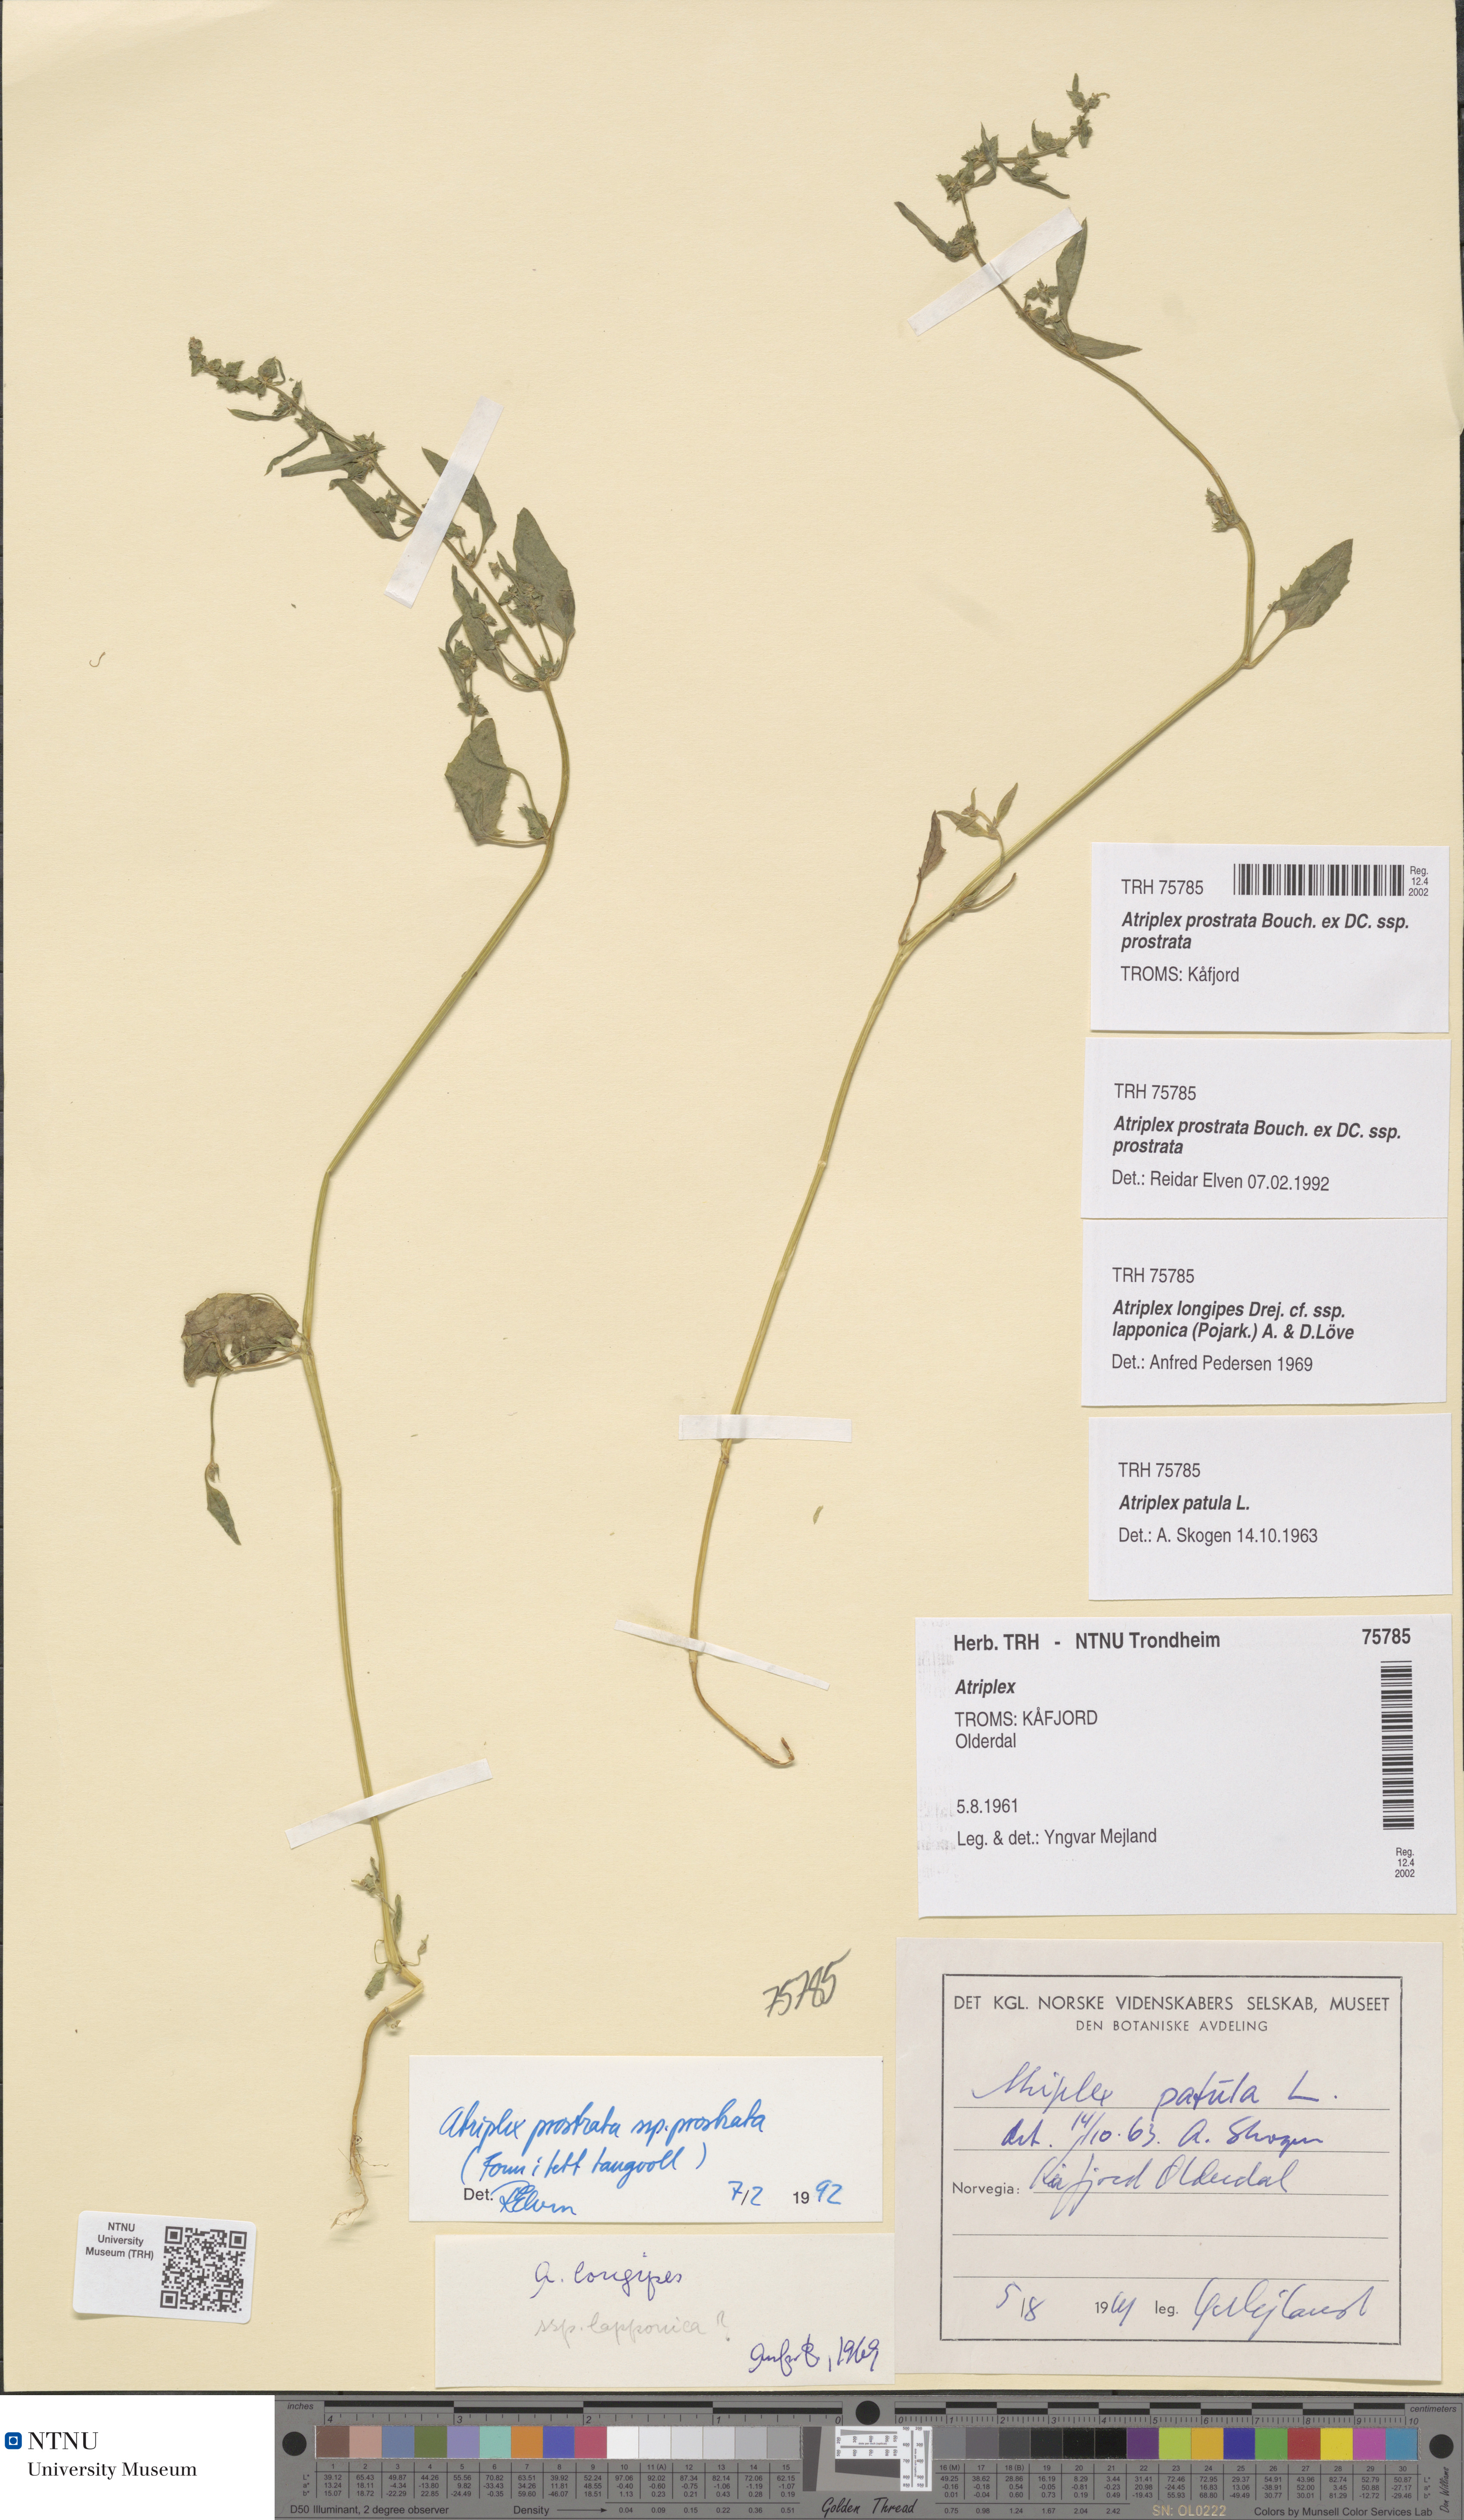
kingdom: Plantae
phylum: Tracheophyta
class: Magnoliopsida
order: Caryophyllales
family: Amaranthaceae
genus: Atriplex
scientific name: Atriplex prostrata
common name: Spear-leaved orache
